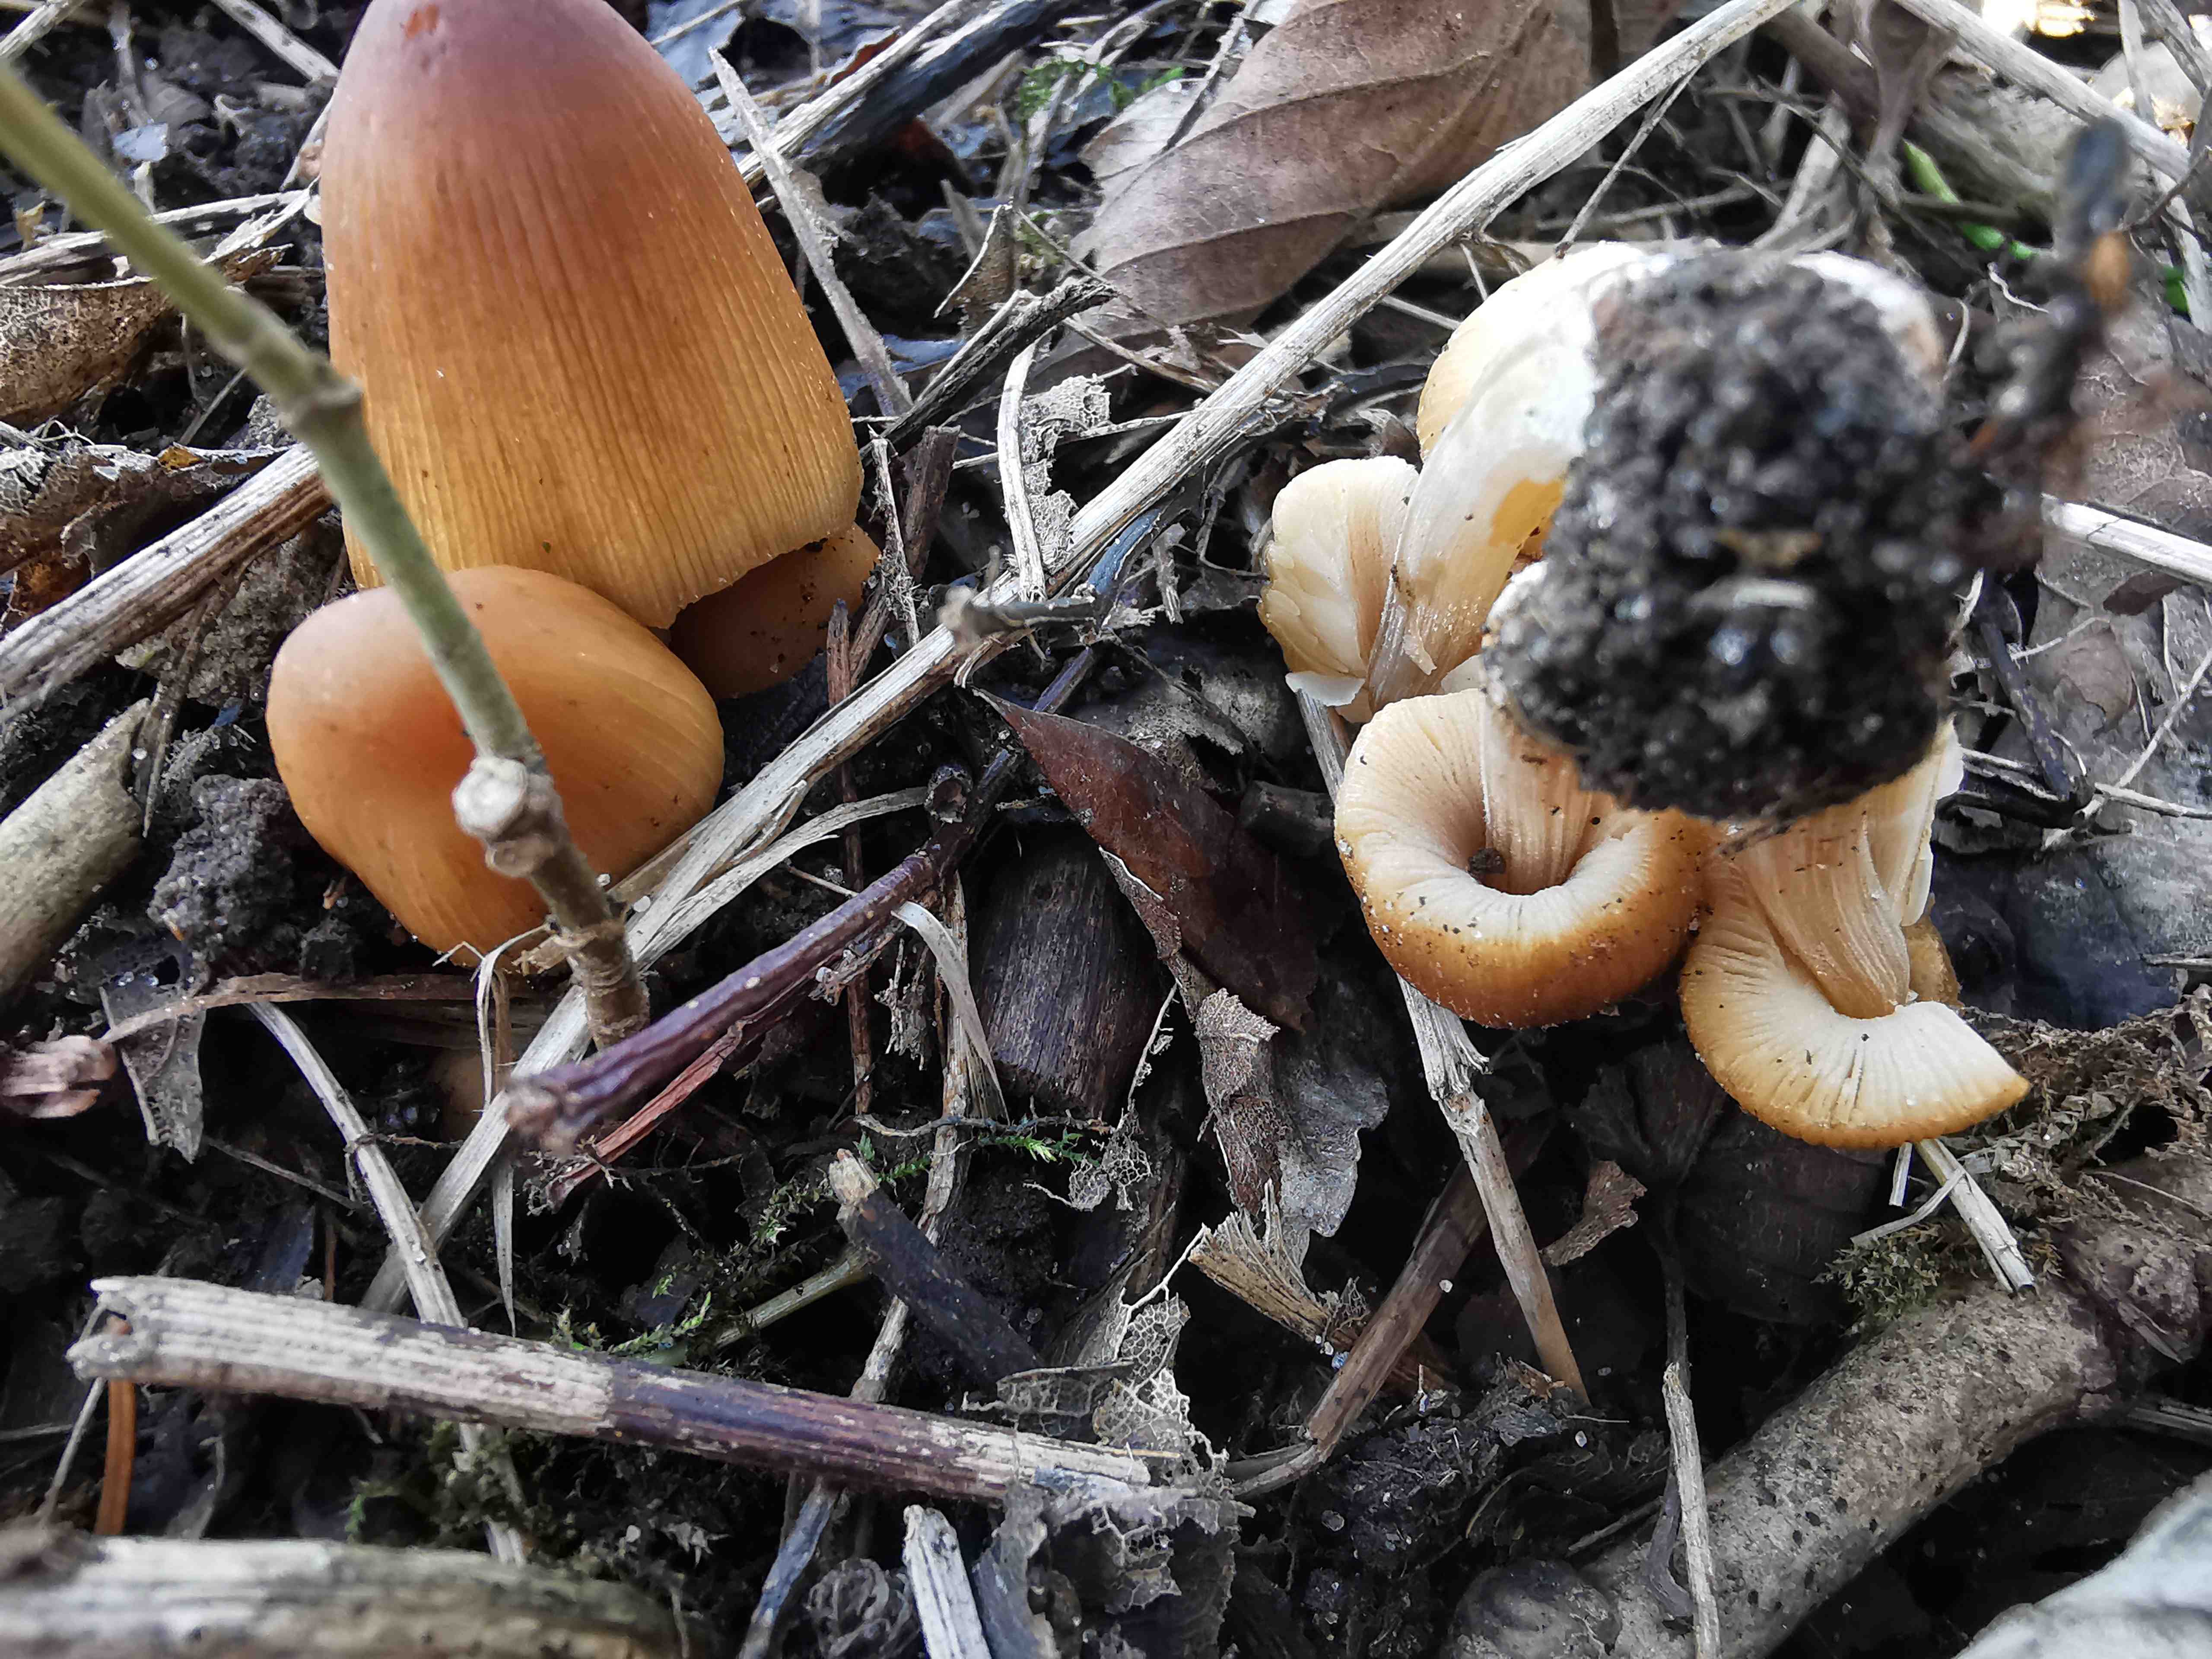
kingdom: Fungi
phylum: Basidiomycota
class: Agaricomycetes
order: Agaricales
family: Psathyrellaceae
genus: Coprinellus
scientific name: Coprinellus micaceus
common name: glimmer-blækhat
